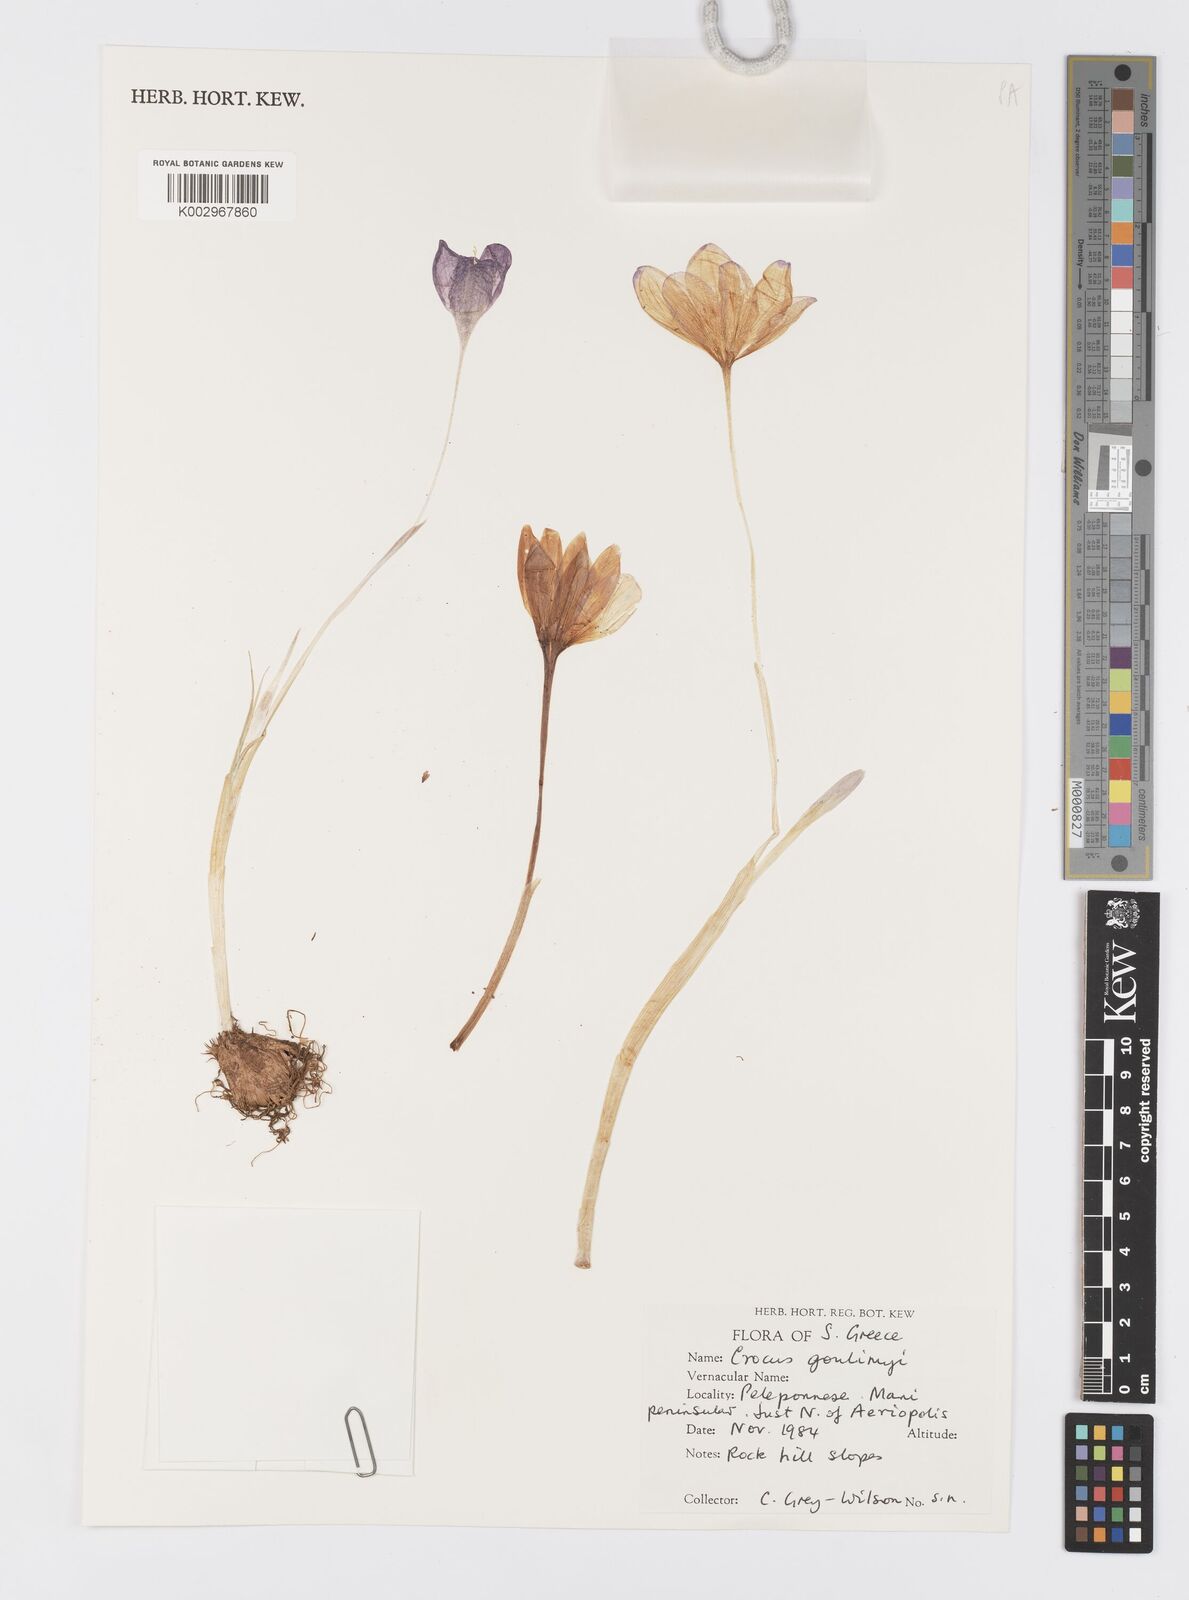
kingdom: Plantae
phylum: Tracheophyta
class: Liliopsida
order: Asparagales
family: Iridaceae
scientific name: Iridaceae
